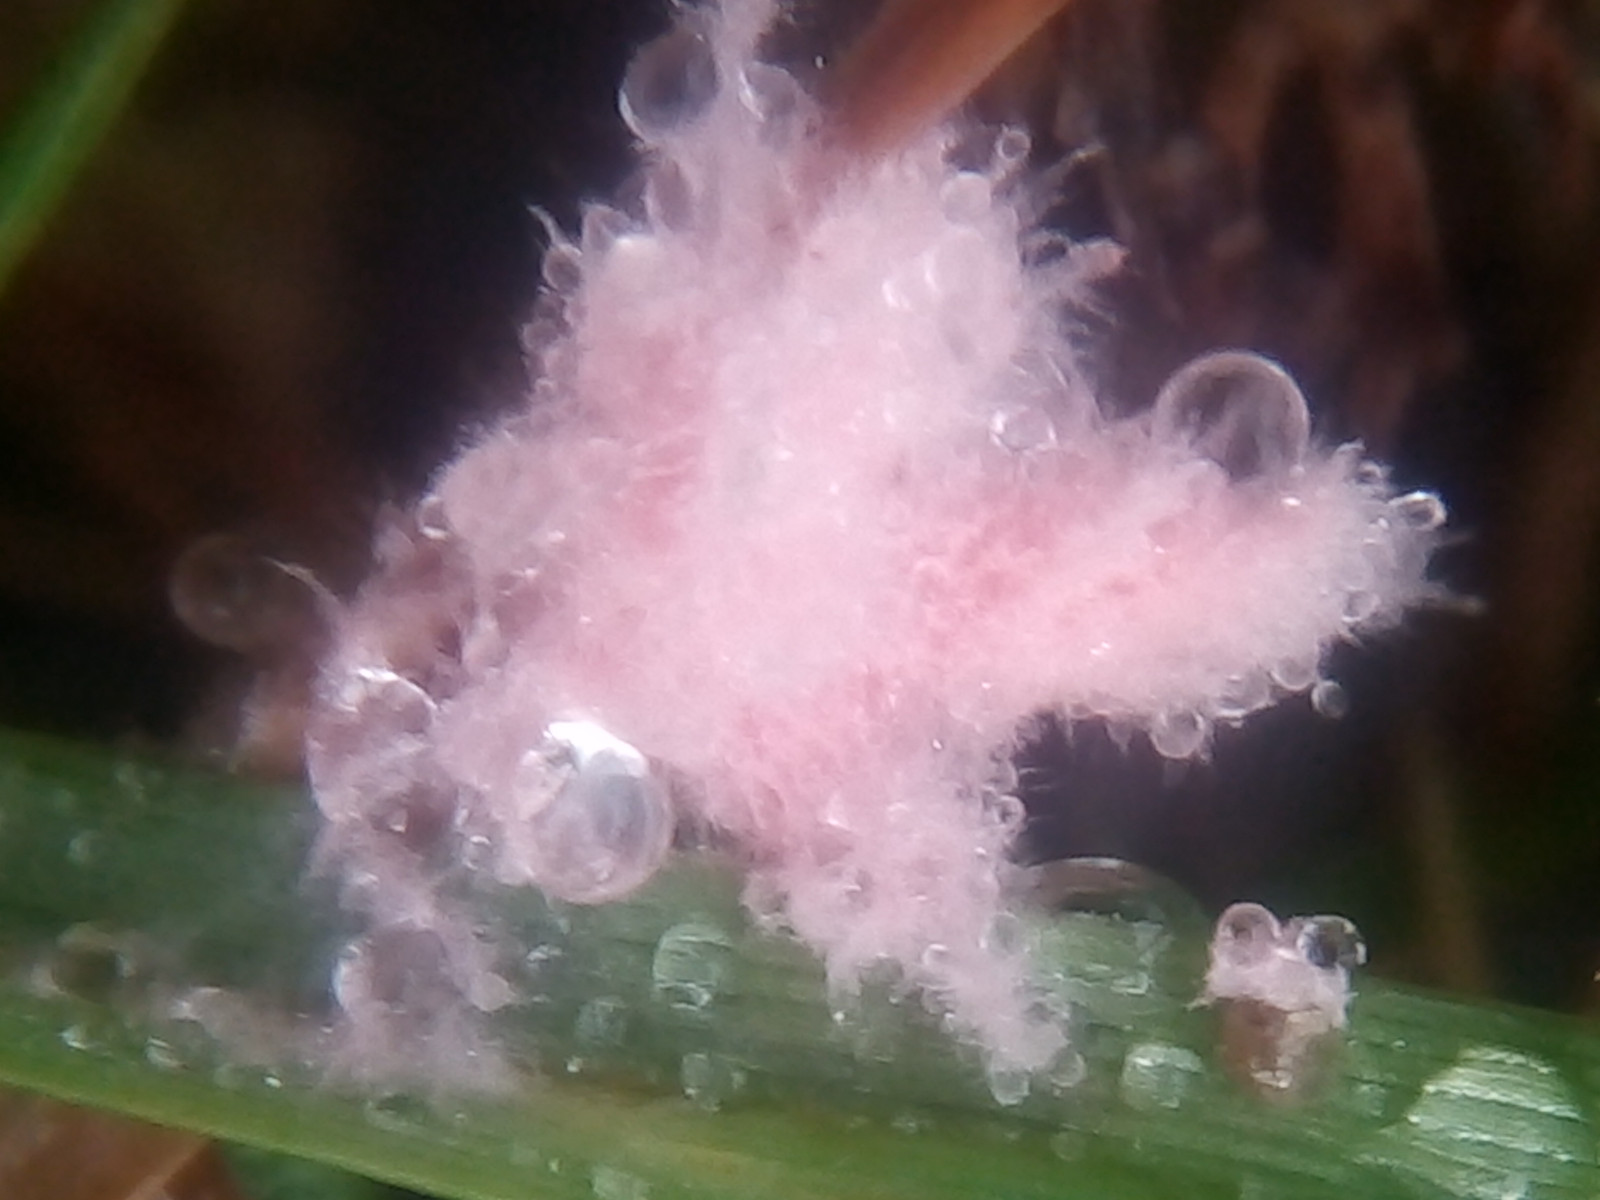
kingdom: Fungi
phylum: Basidiomycota
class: Agaricomycetes
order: Corticiales
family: Corticiaceae
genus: Laetisaria
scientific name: Laetisaria fuciformis
